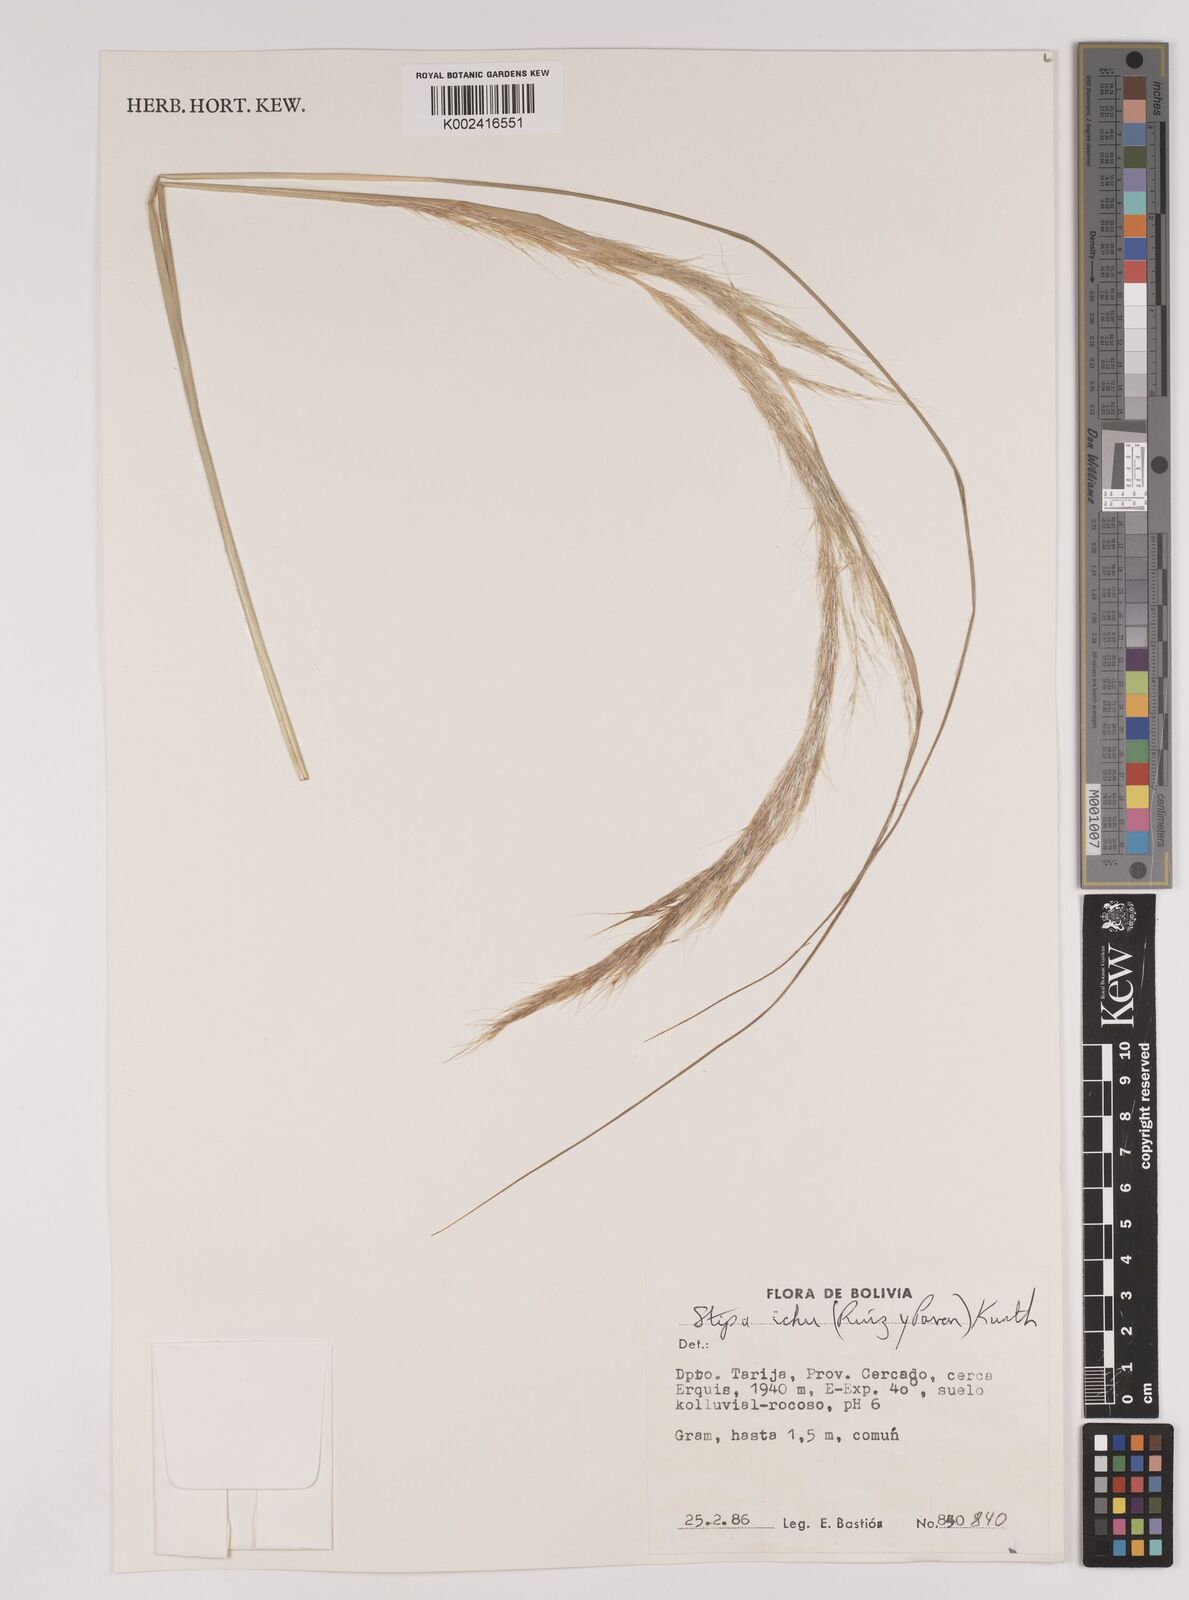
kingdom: Plantae
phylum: Tracheophyta
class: Liliopsida
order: Poales
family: Poaceae
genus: Jarava
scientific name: Jarava ichu
